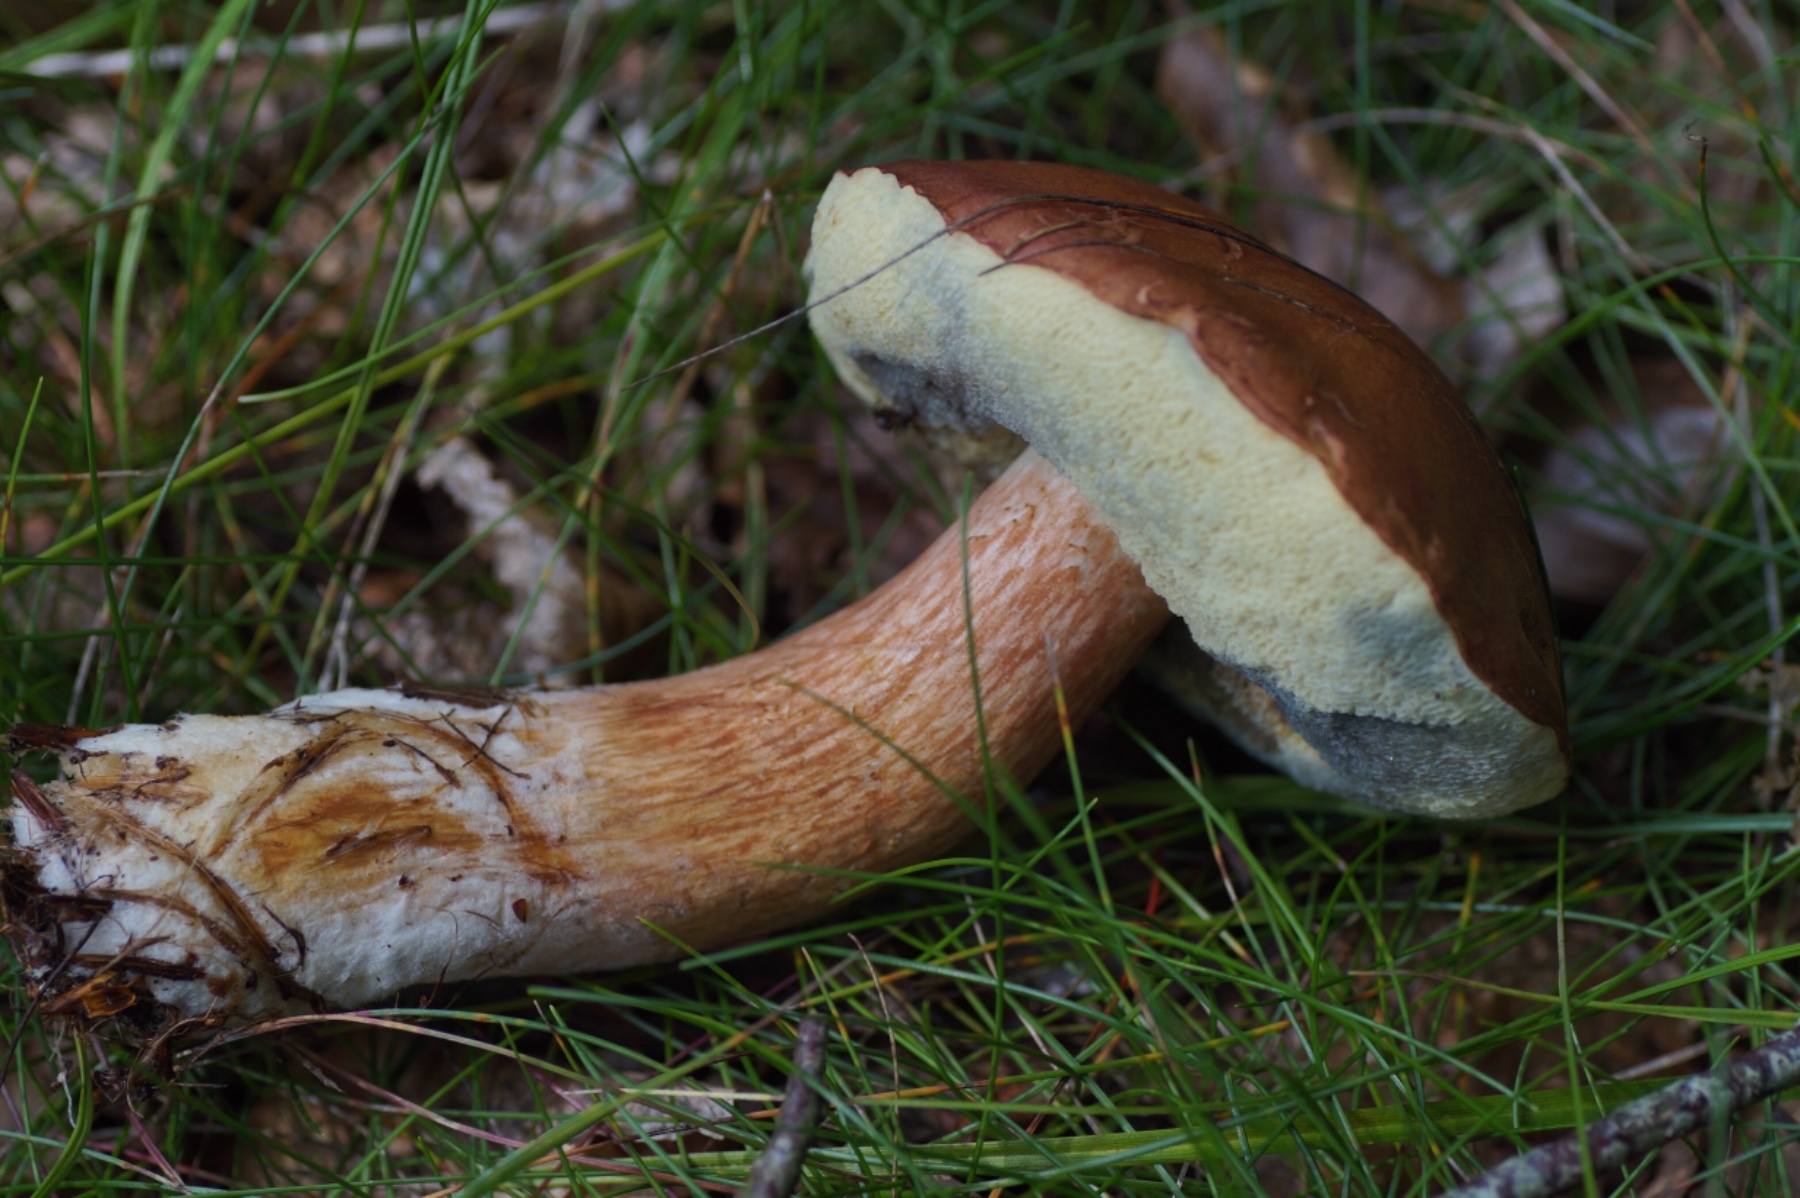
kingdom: Fungi
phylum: Basidiomycota
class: Agaricomycetes
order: Boletales
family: Boletaceae
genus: Imleria
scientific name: Imleria badia
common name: brunstokket rørhat
